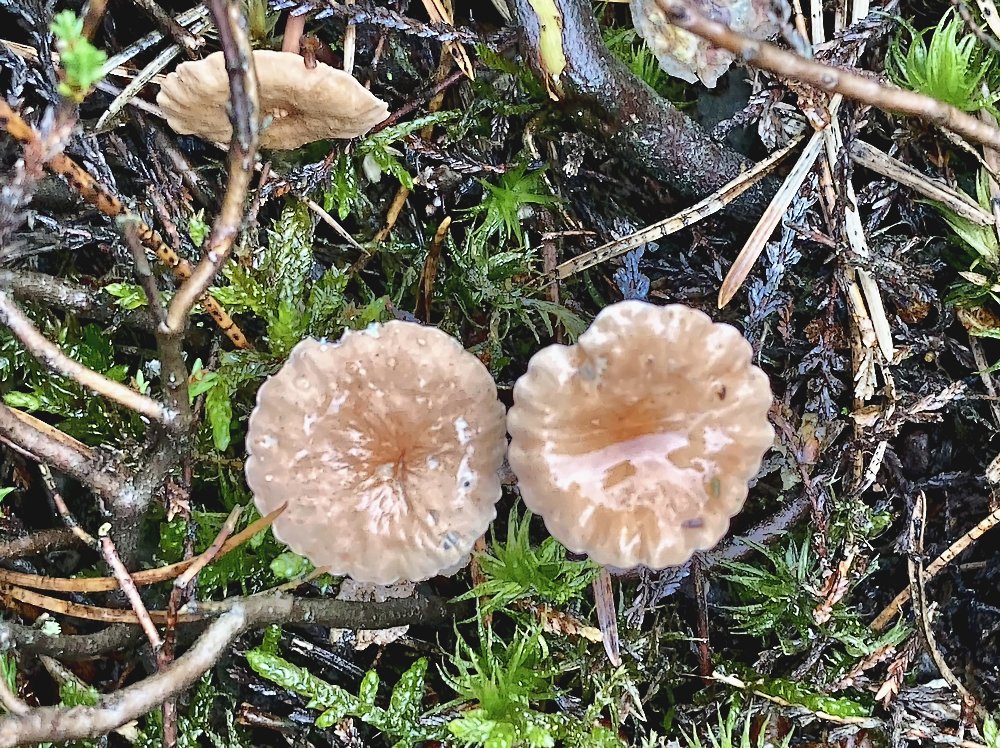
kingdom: Fungi
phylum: Basidiomycota
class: Agaricomycetes
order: Agaricales
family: Omphalotaceae
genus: Mycetinis
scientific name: Mycetinis scorodonius
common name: lille løghat
